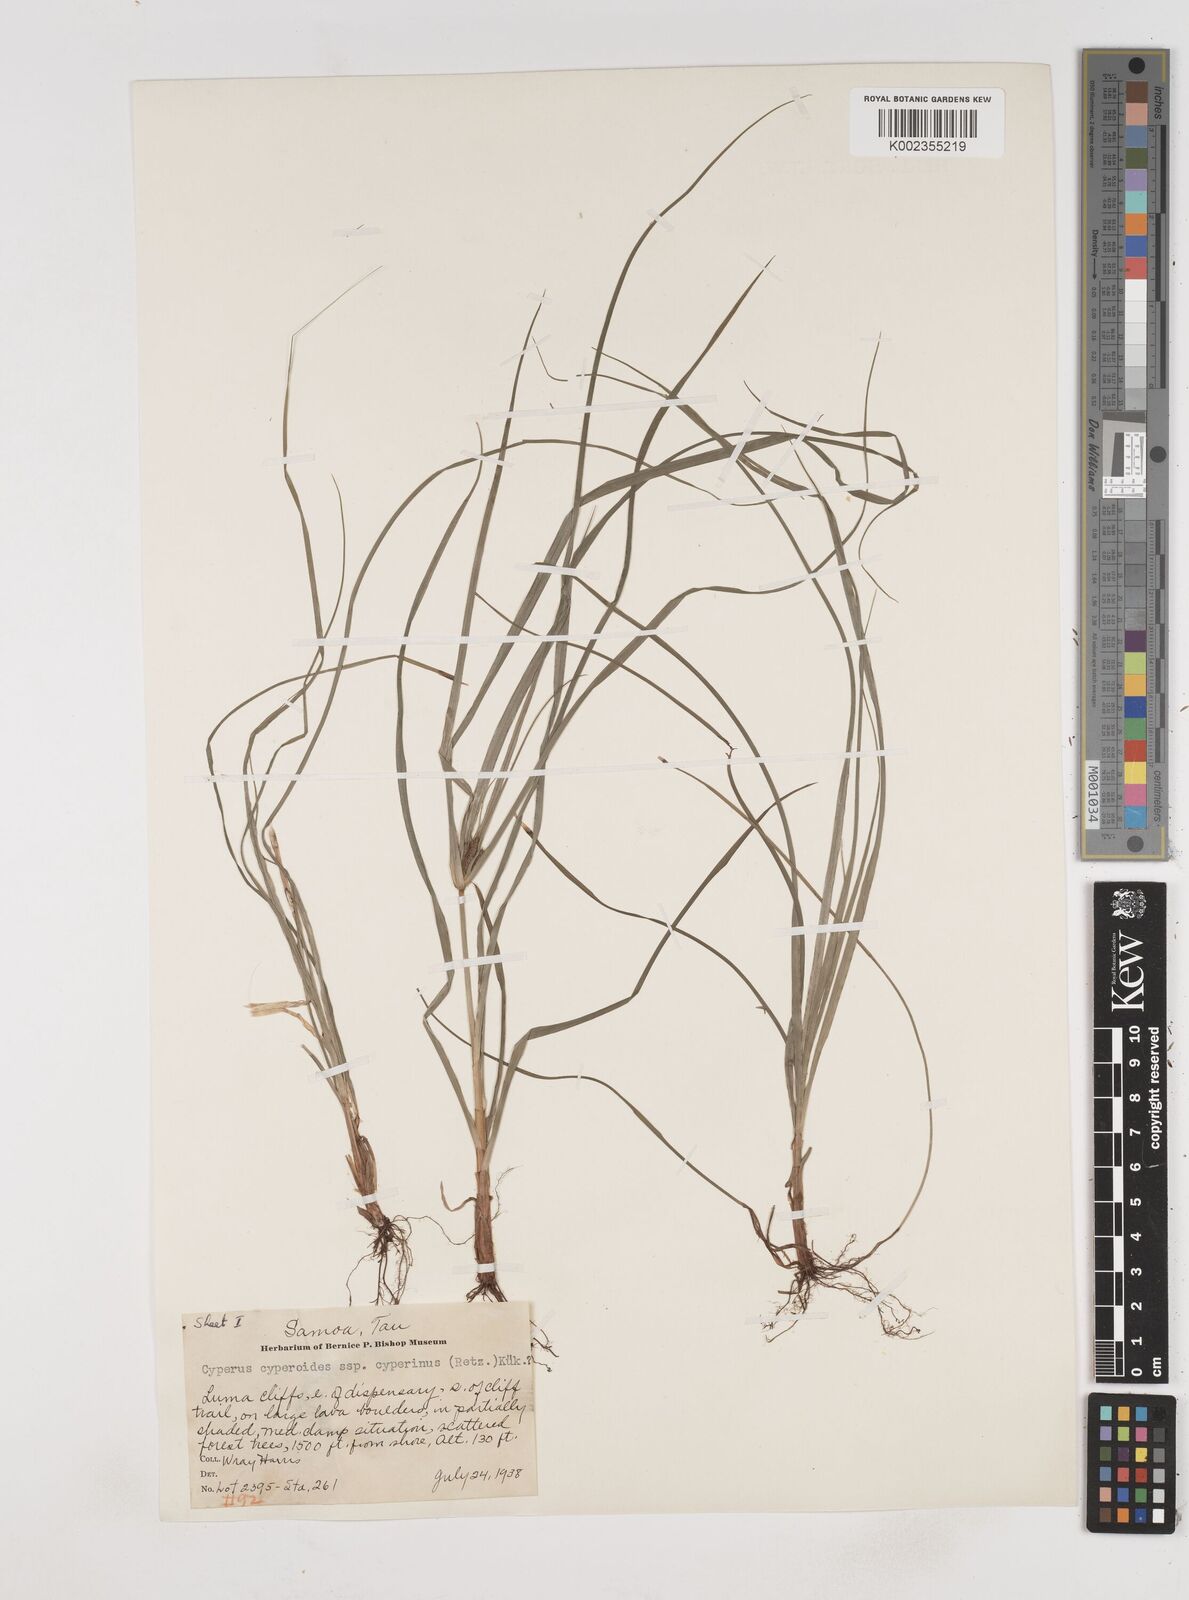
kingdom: Plantae
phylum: Tracheophyta
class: Liliopsida
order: Poales
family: Cyperaceae
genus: Cyperus
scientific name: Cyperus cyperinus
